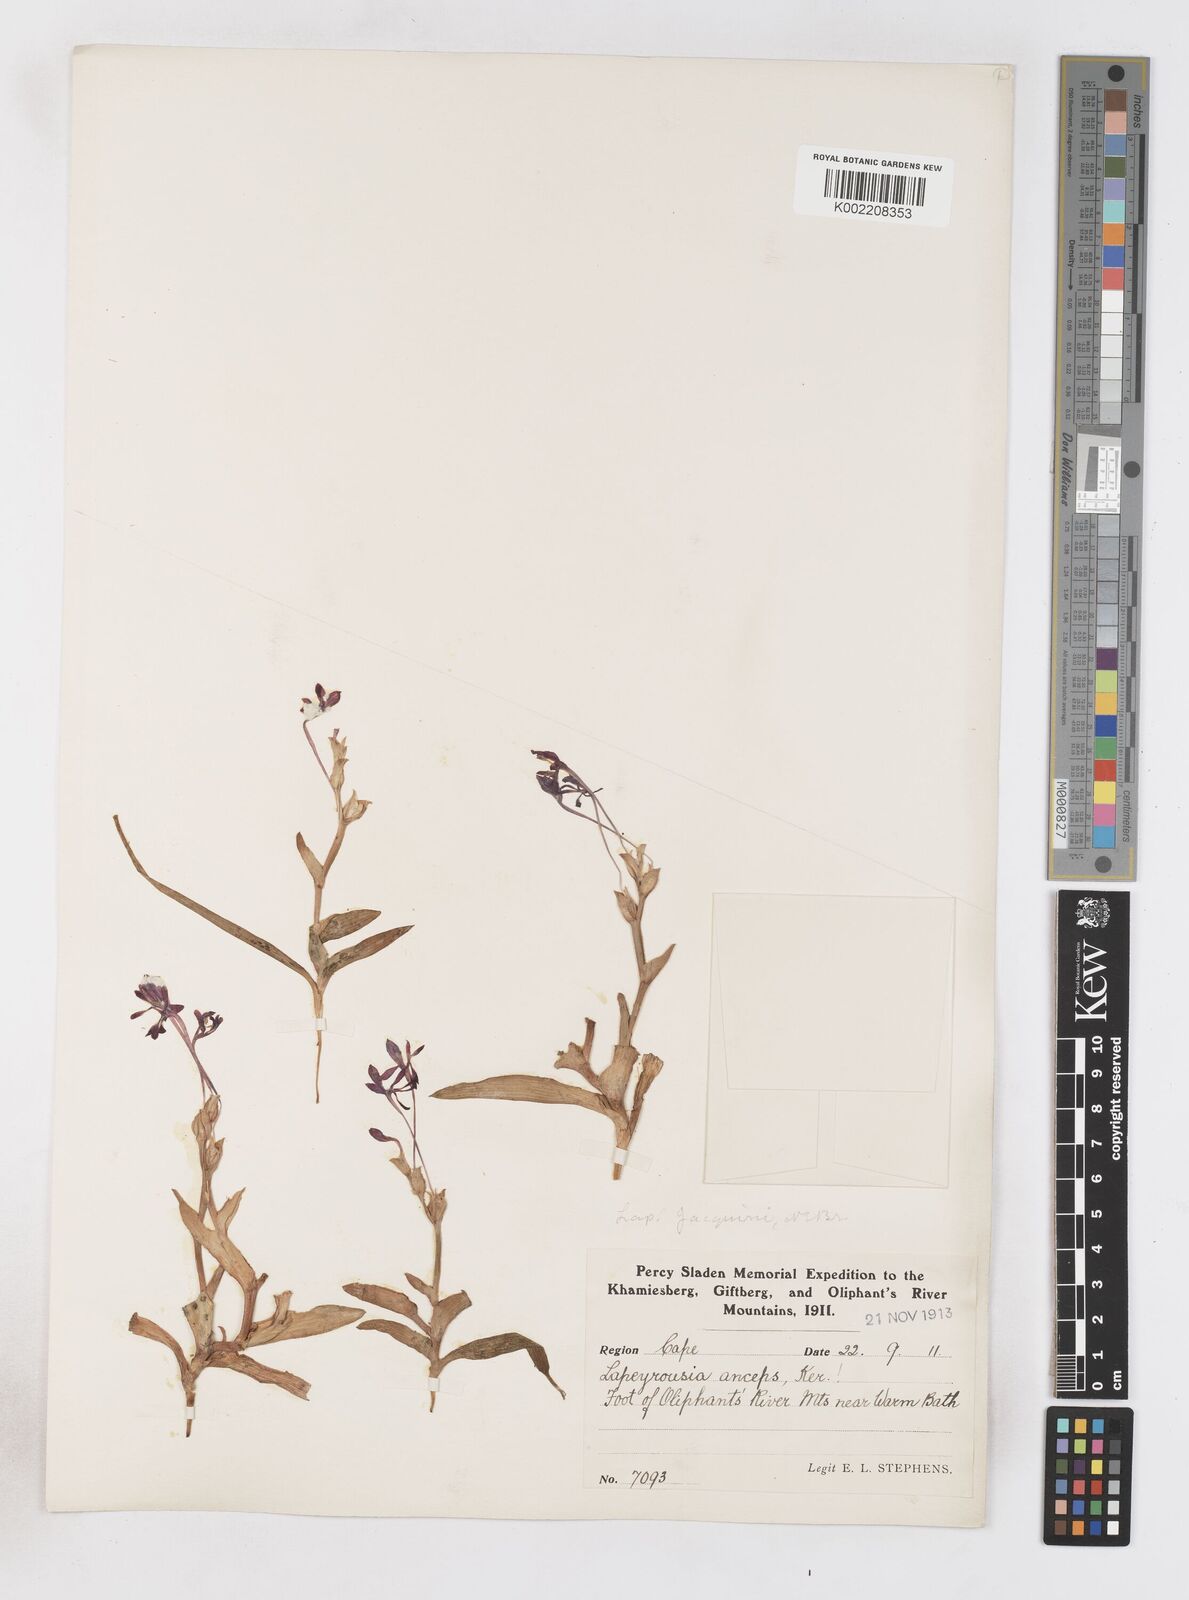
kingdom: Plantae
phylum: Tracheophyta
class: Liliopsida
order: Asparagales
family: Iridaceae
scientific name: Iridaceae
